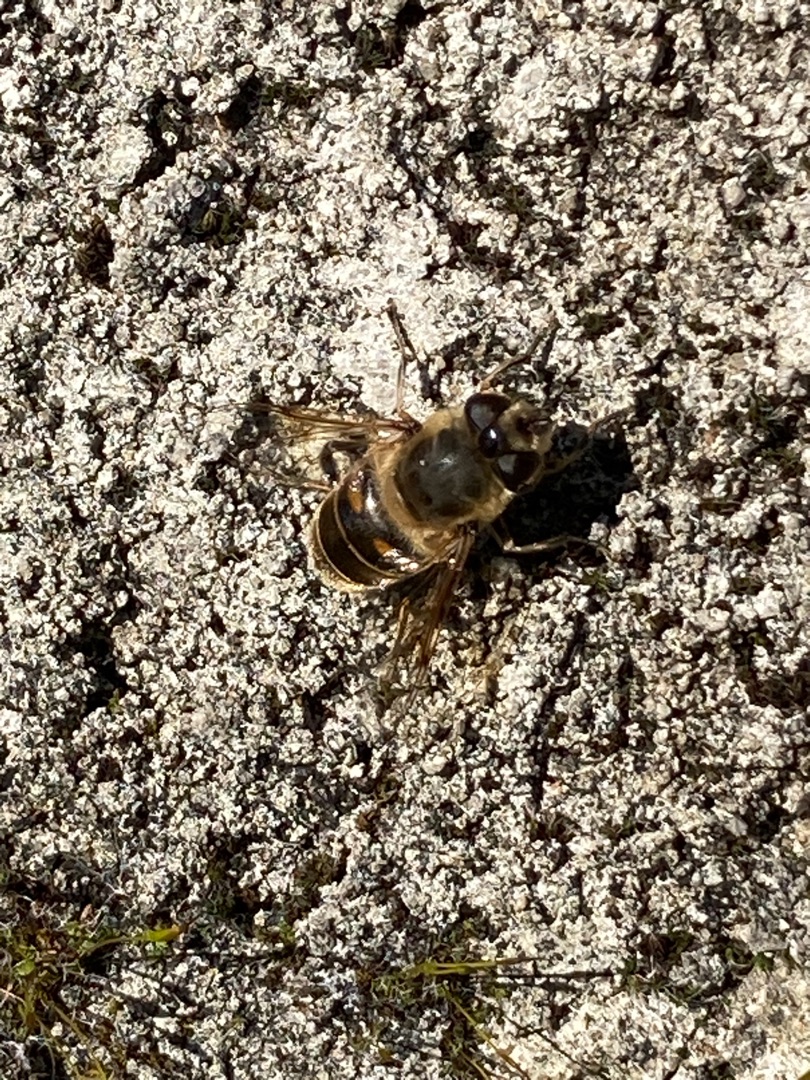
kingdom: Animalia
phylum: Arthropoda
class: Insecta
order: Diptera
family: Syrphidae
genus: Eristalis
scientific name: Eristalis tenax
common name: Droneflue
